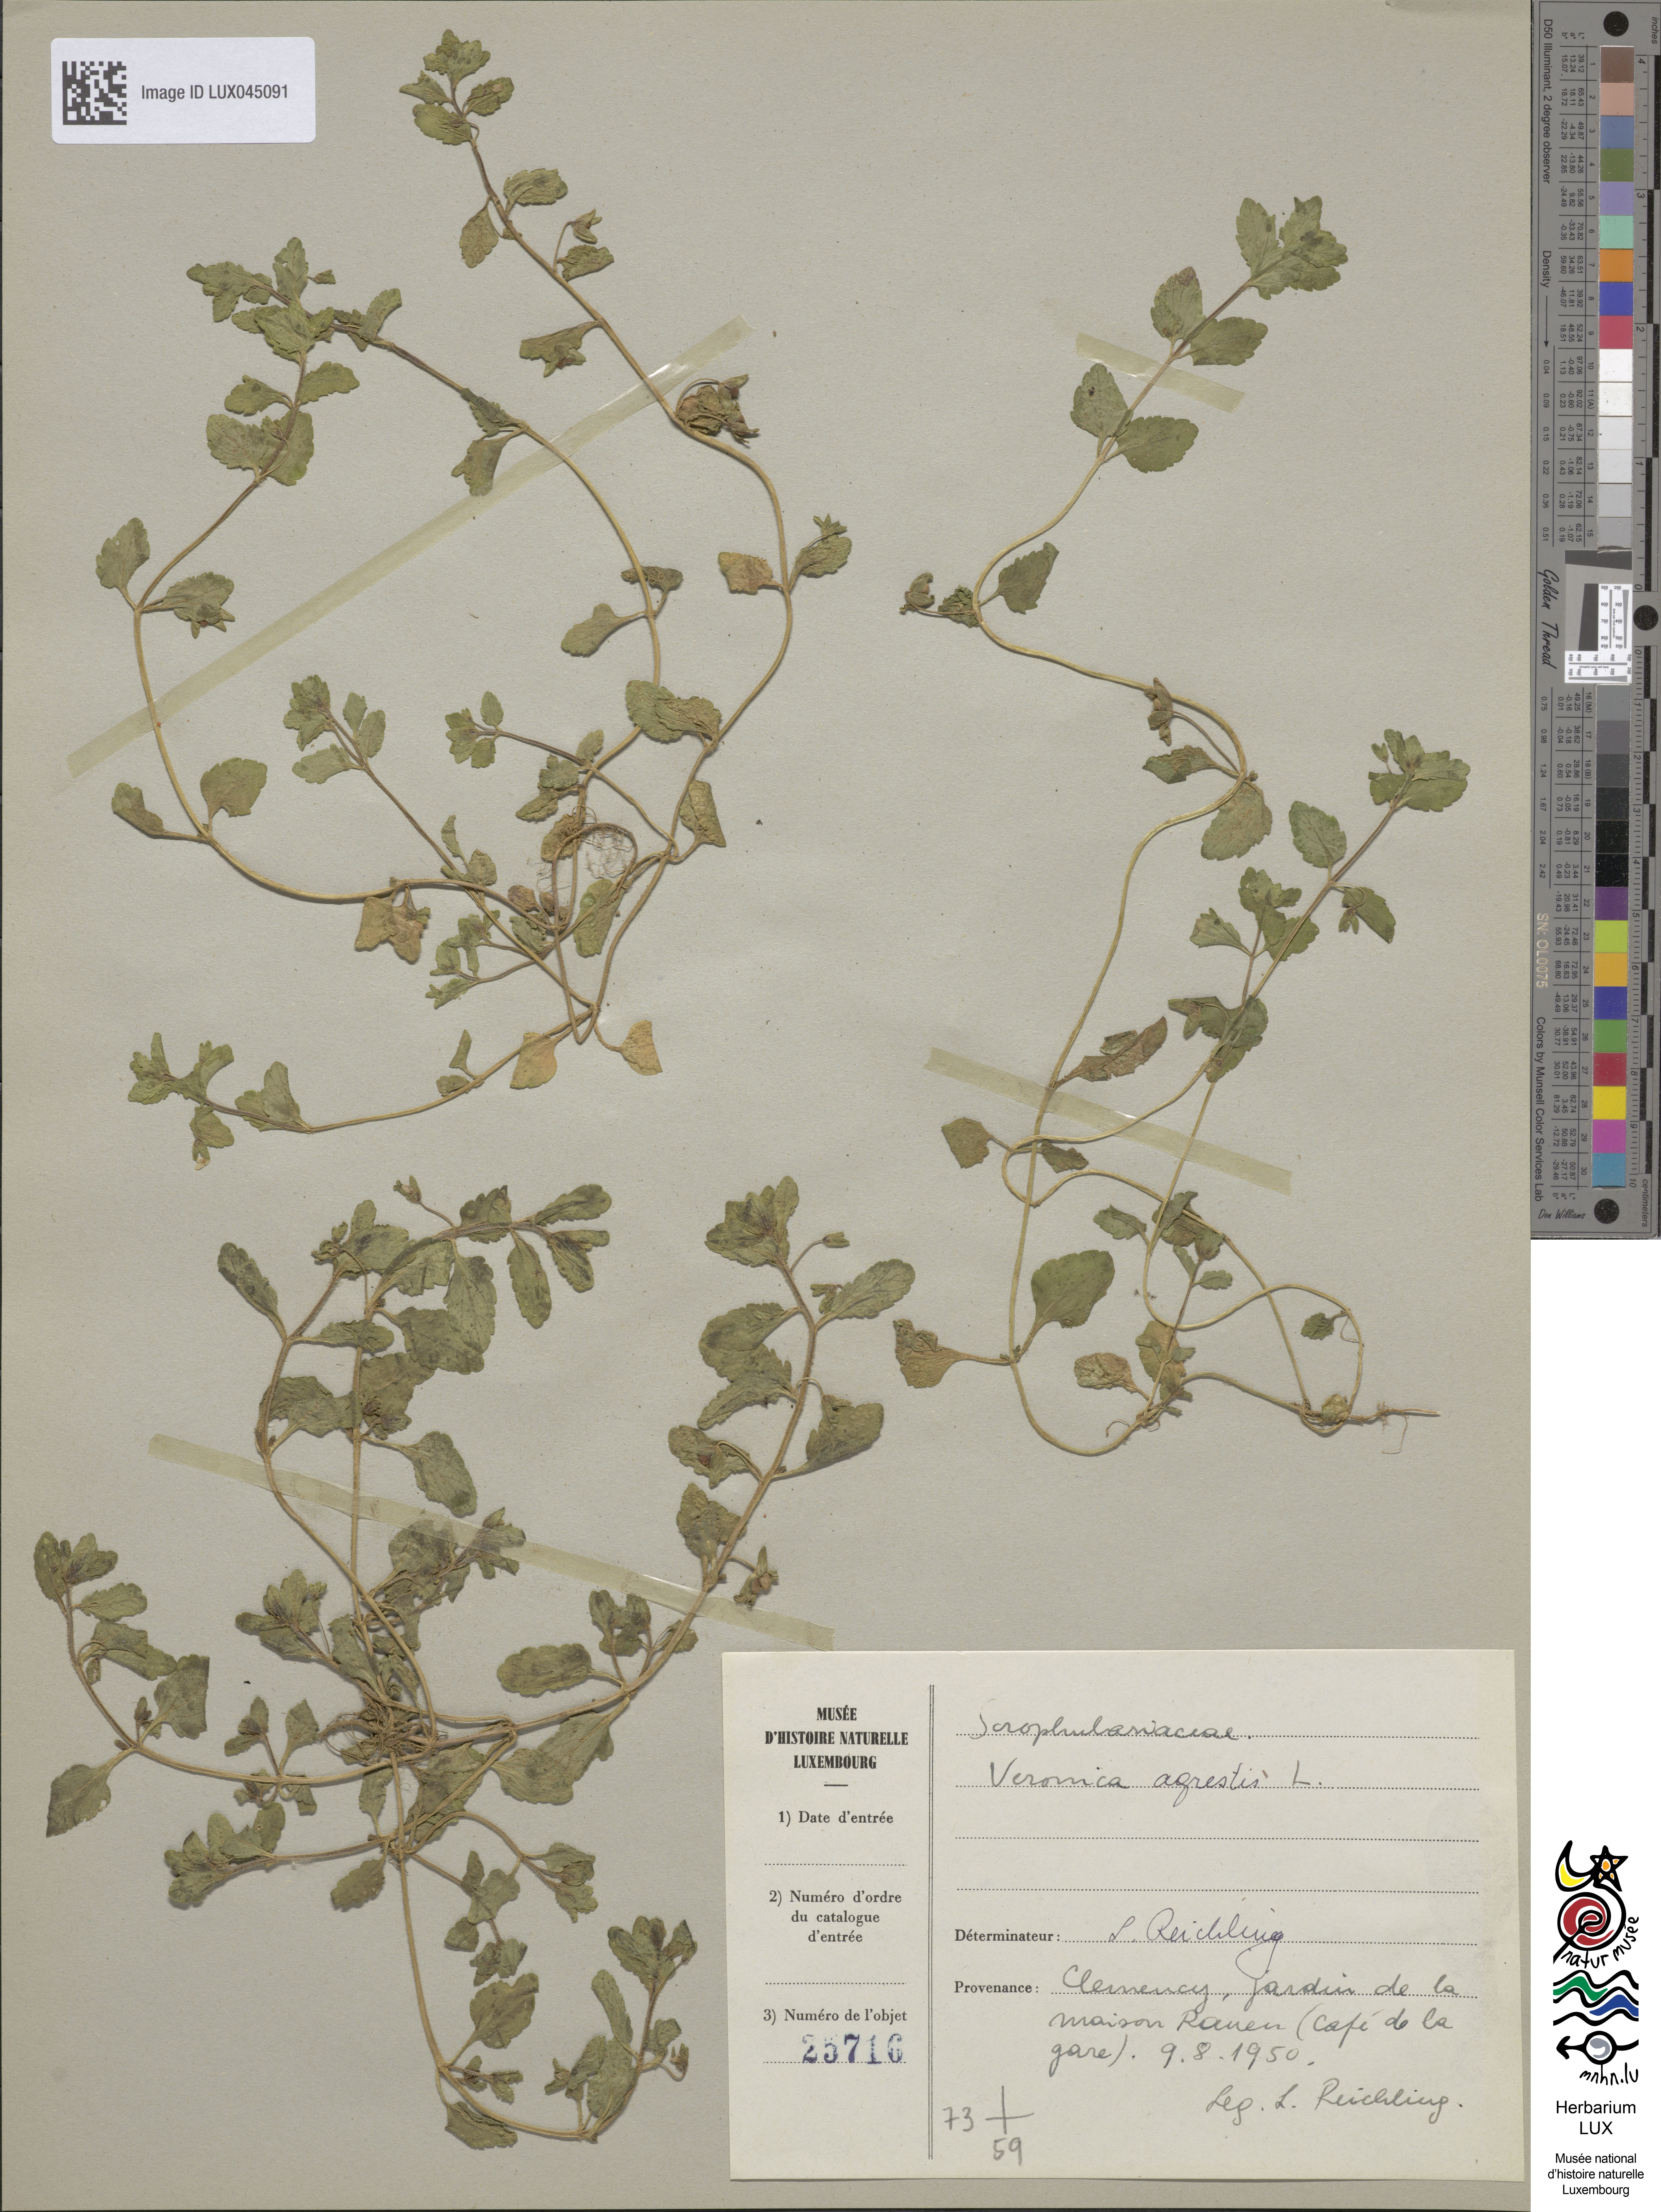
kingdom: Plantae
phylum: Tracheophyta
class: Magnoliopsida
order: Lamiales
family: Plantaginaceae
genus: Veronica
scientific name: Veronica agrestis
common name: Green field-speedwell
